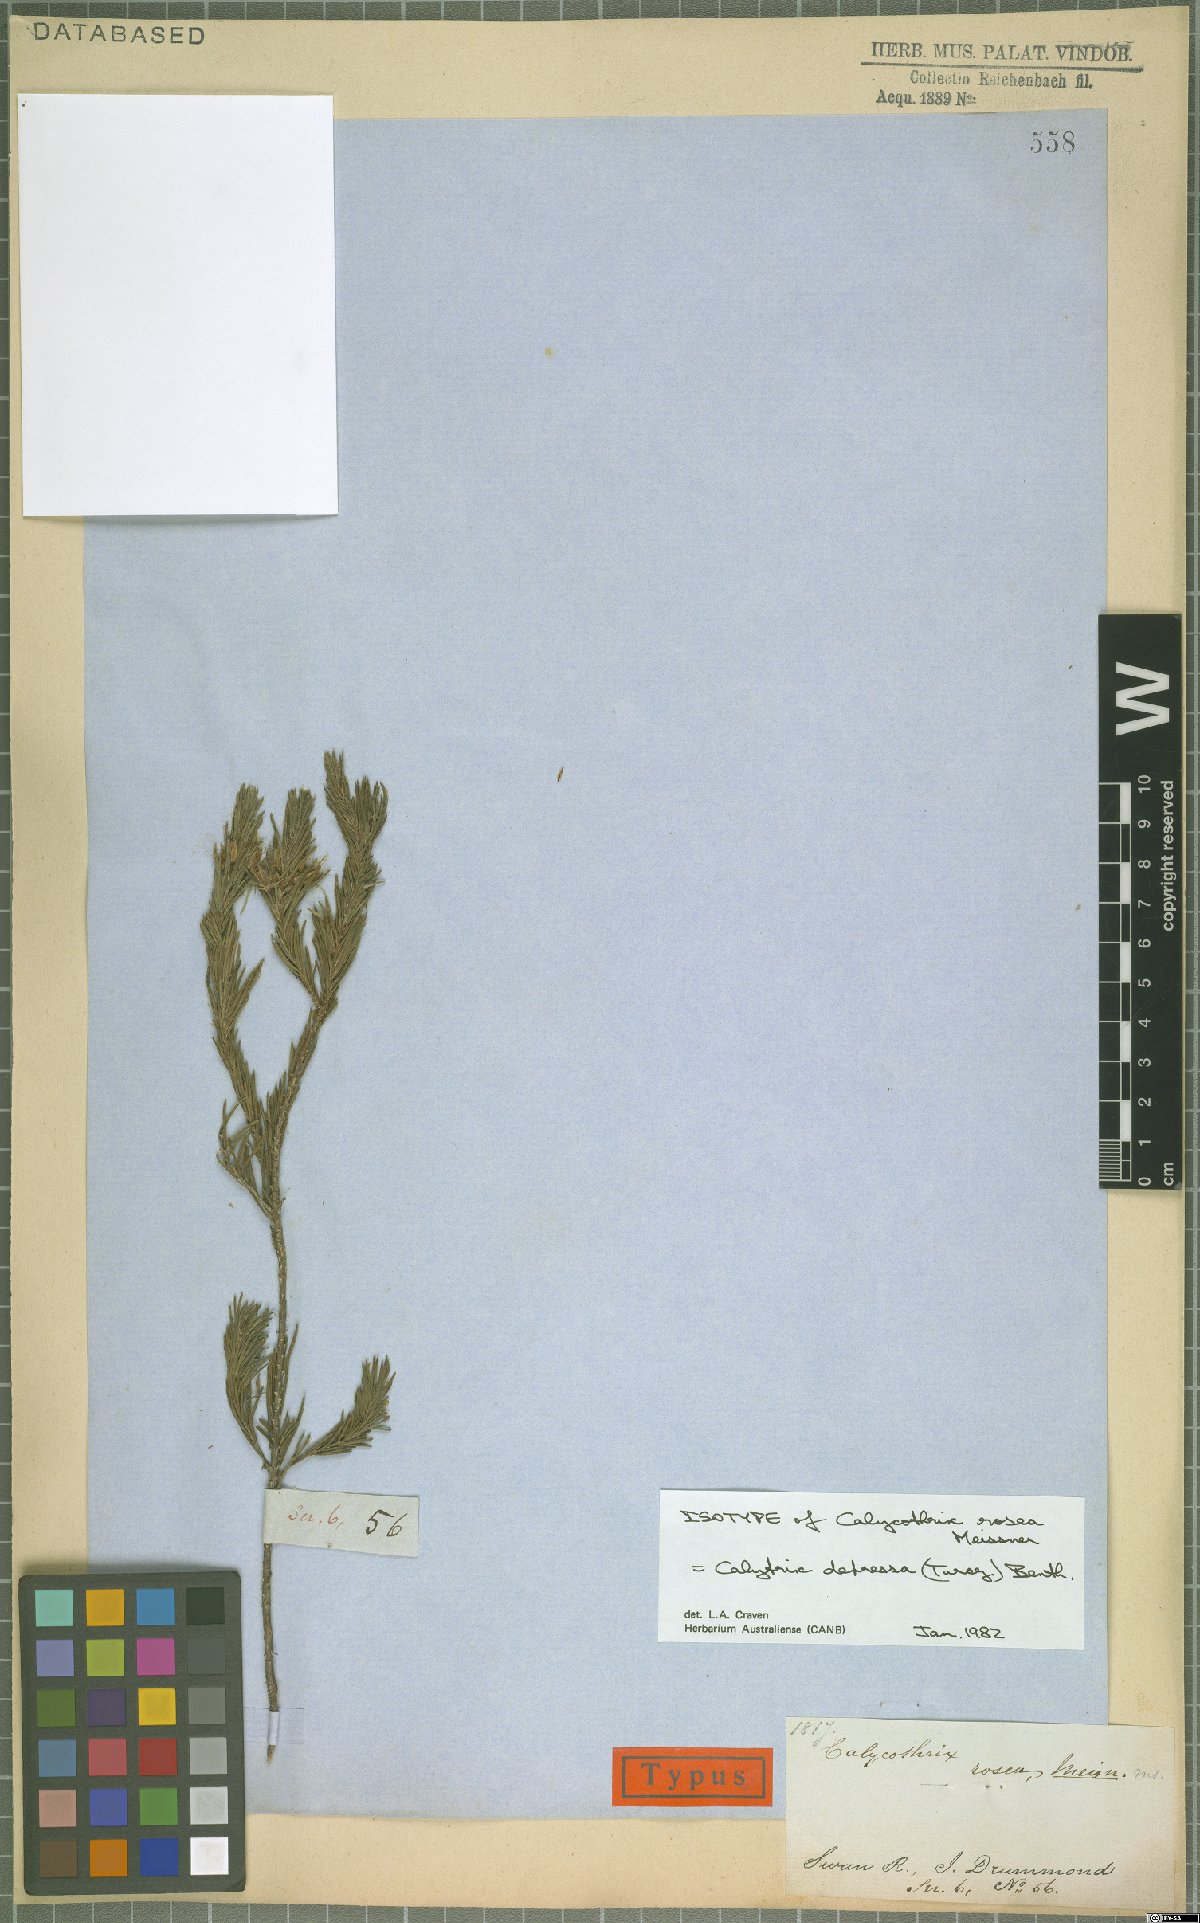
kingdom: Plantae
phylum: Tracheophyta
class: Magnoliopsida
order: Myrtales
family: Myrtaceae
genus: Calytrix
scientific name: Calytrix depressa
